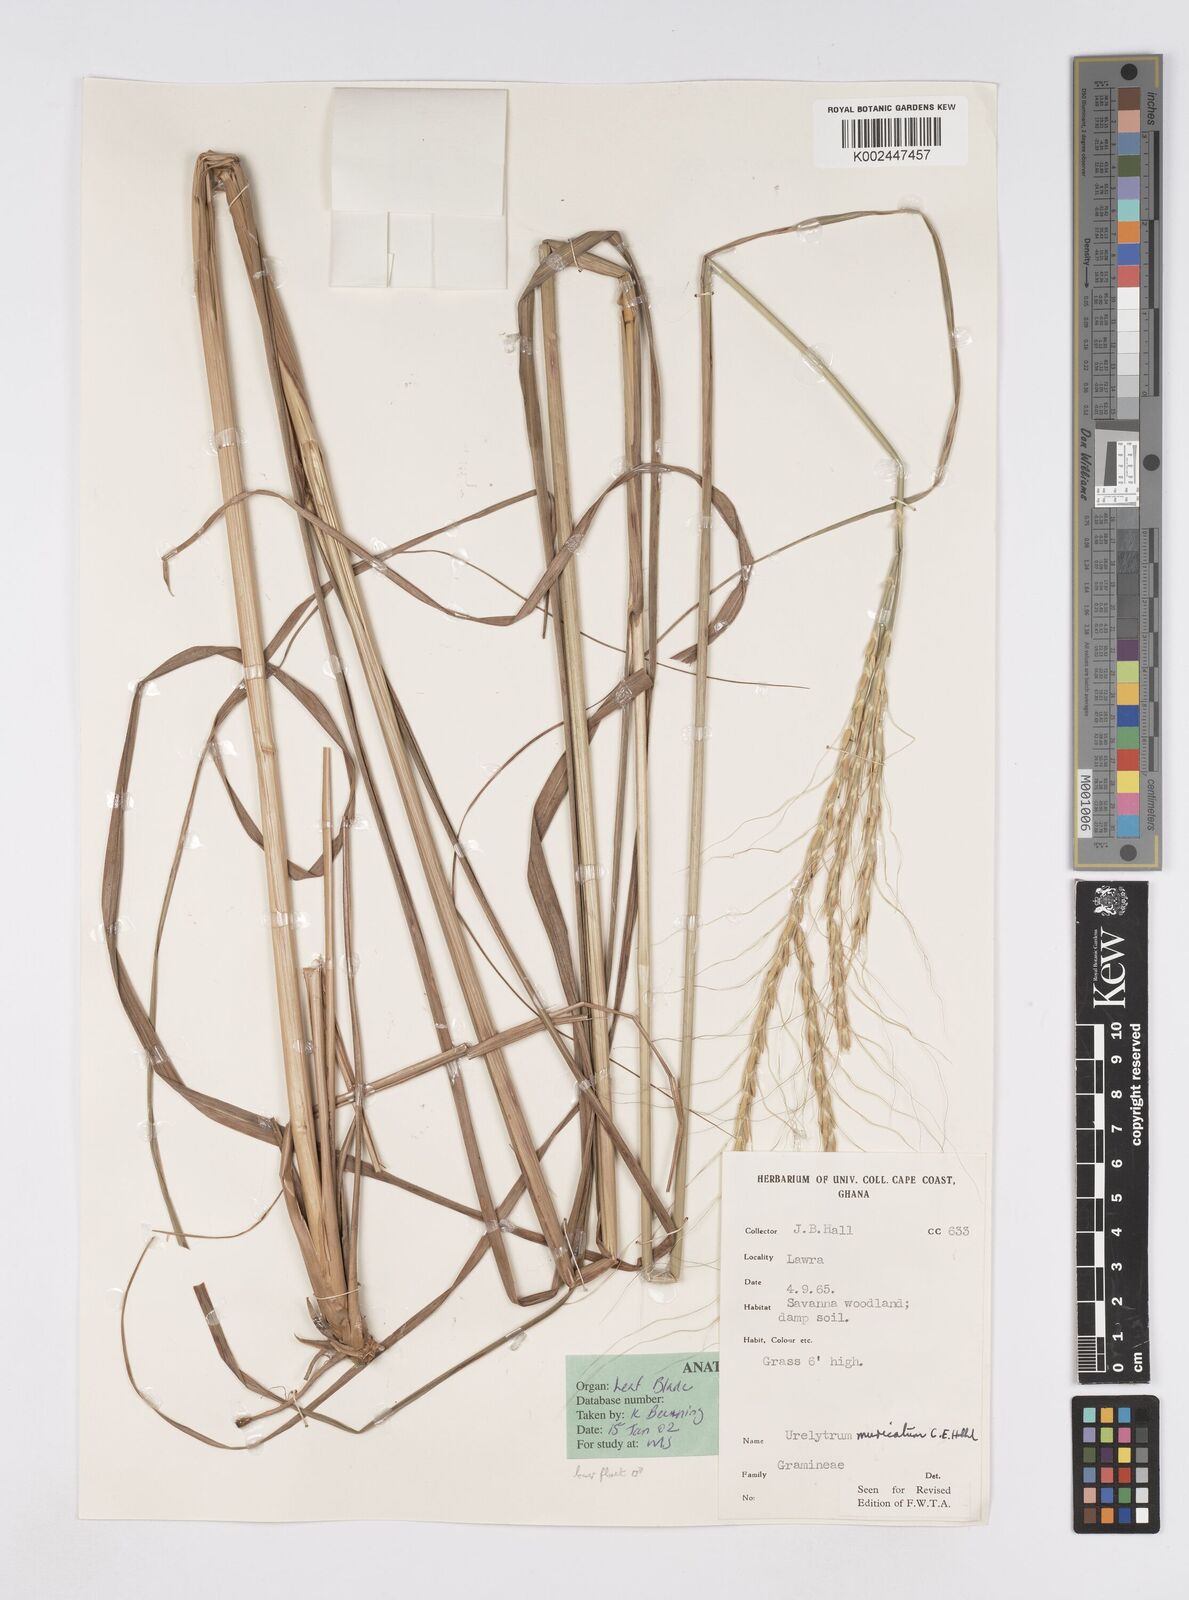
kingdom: Plantae
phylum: Tracheophyta
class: Liliopsida
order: Poales
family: Poaceae
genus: Urelytrum
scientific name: Urelytrum muricatum
